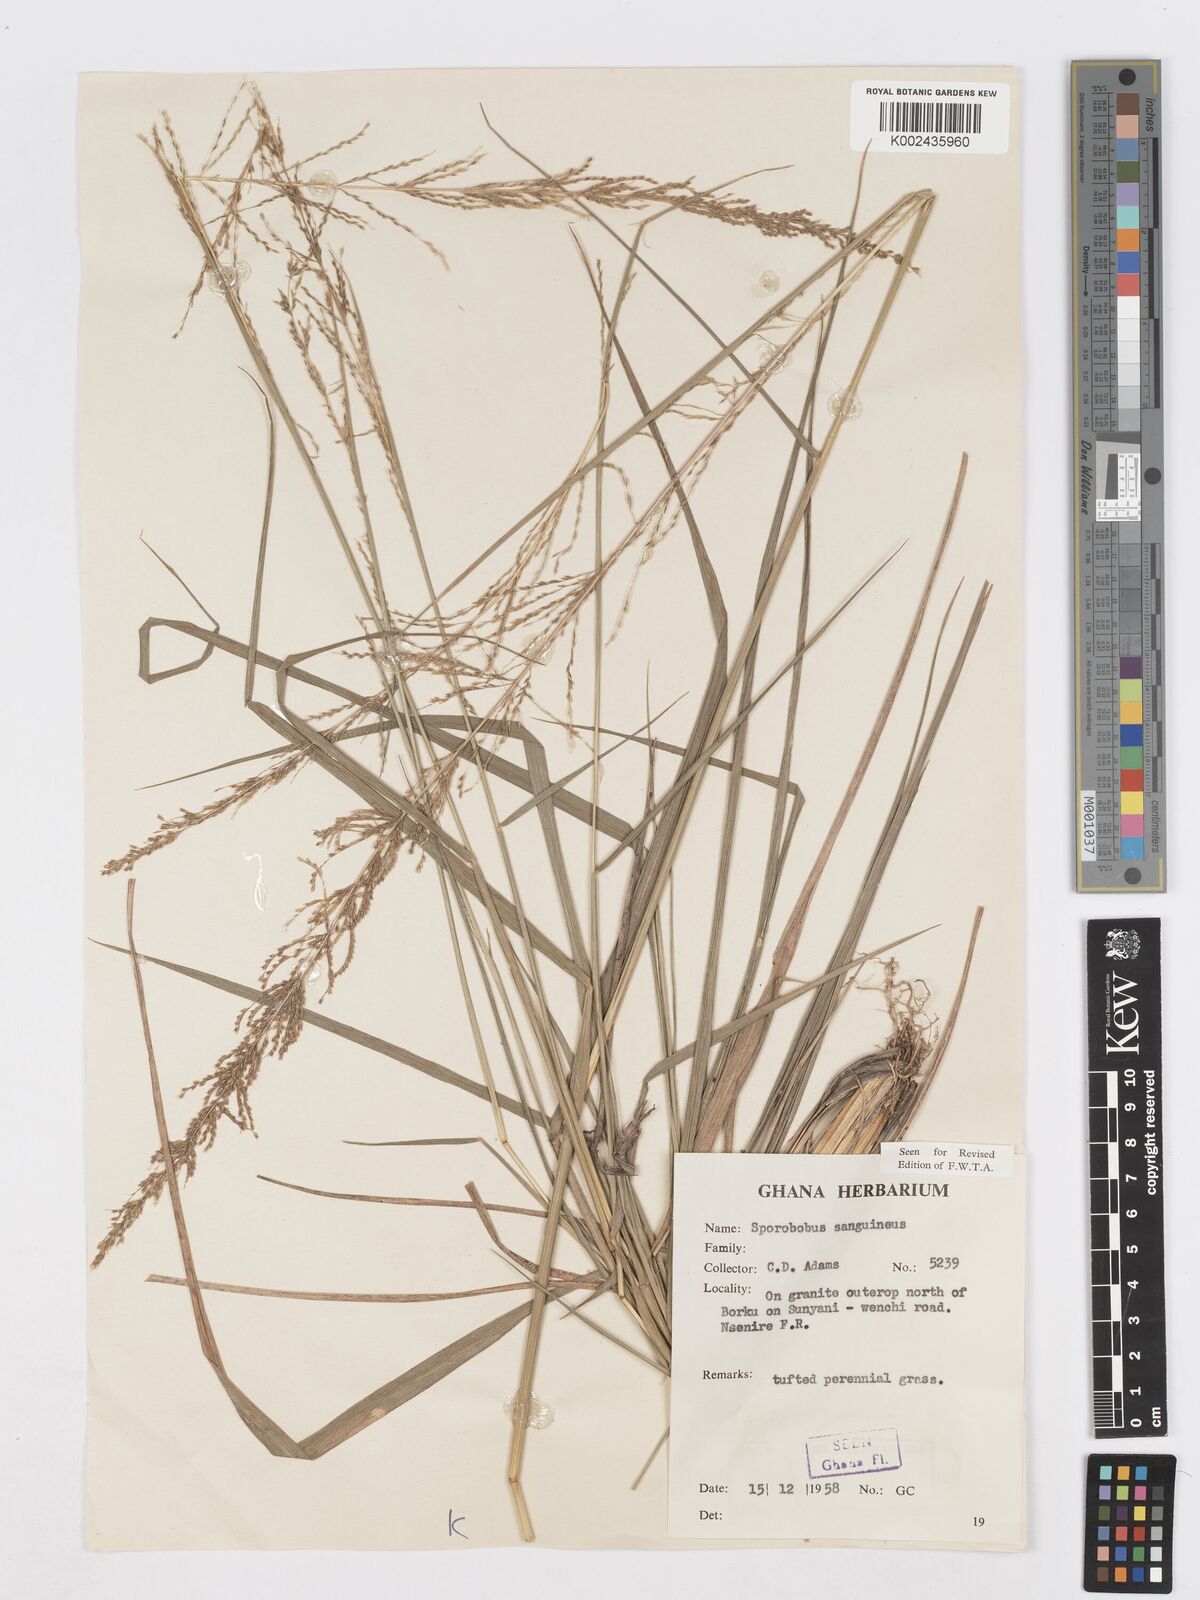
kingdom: Plantae
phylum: Tracheophyta
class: Liliopsida
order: Poales
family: Poaceae
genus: Sporobolus
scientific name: Sporobolus sanguineus
